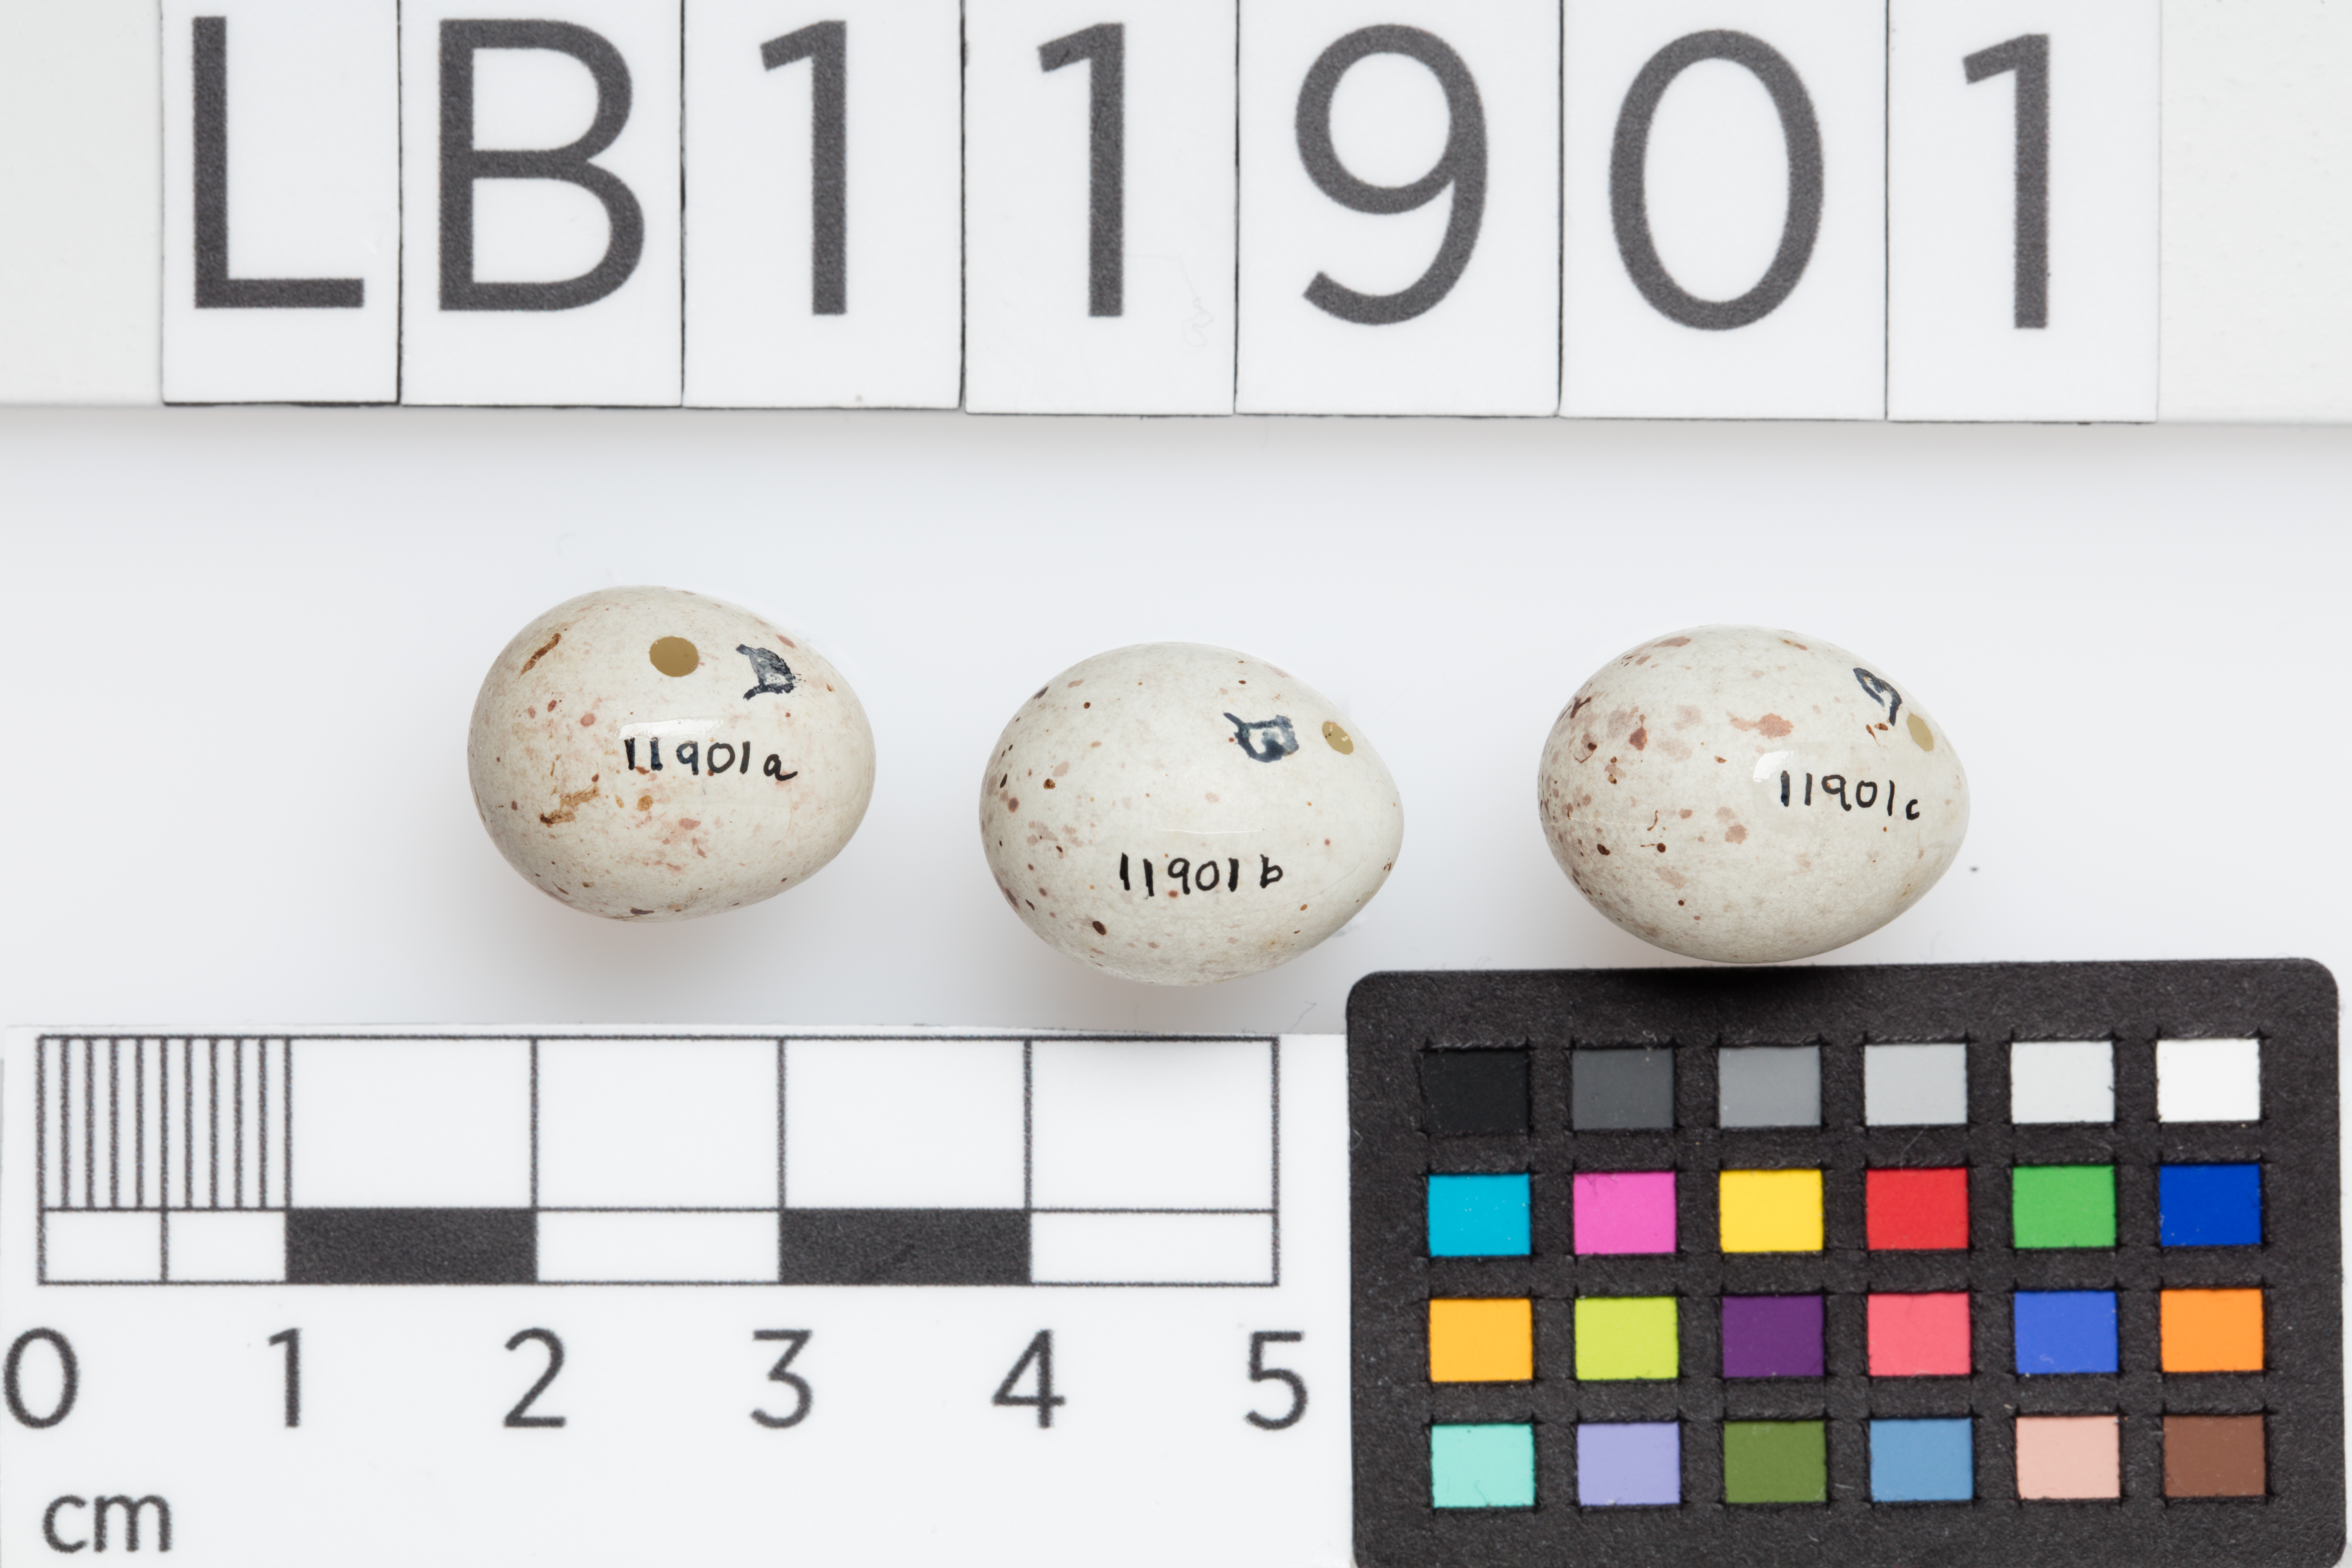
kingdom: Animalia
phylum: Chordata
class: Aves
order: Passeriformes
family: Fringillidae
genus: Linaria
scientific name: Linaria cannabina
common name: Common linnet
